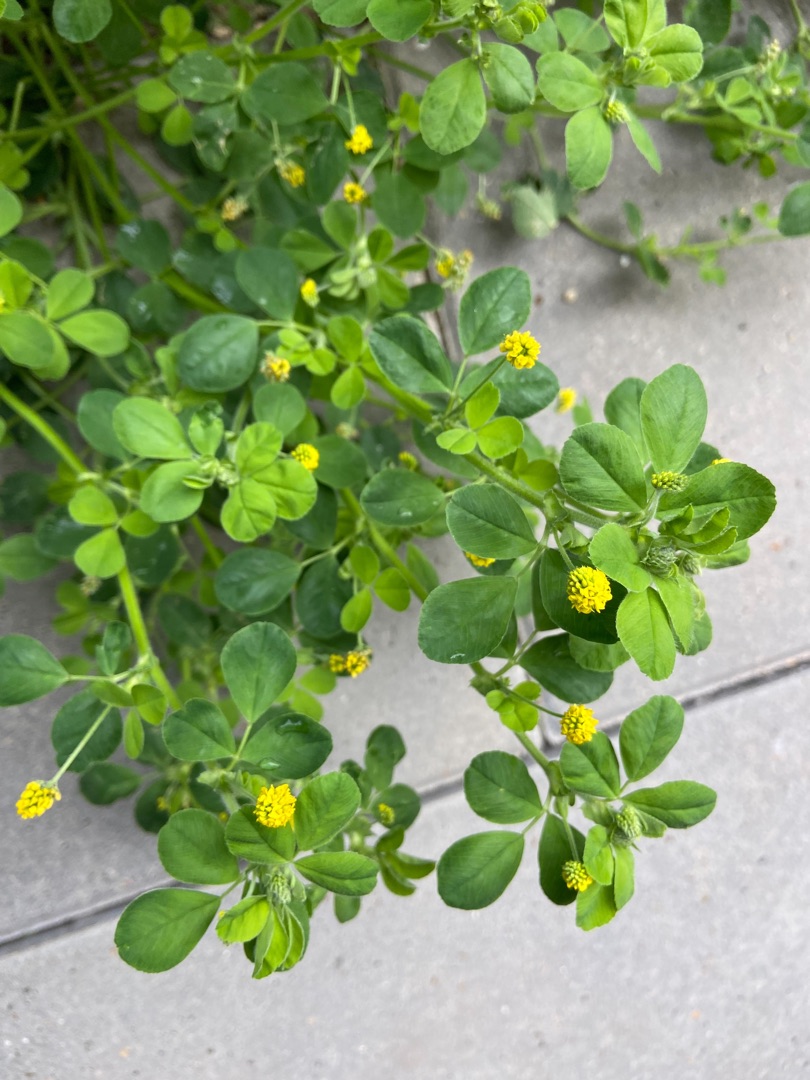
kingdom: Plantae
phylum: Tracheophyta
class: Magnoliopsida
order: Fabales
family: Fabaceae
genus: Medicago
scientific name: Medicago lupulina
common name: Humle-sneglebælg
